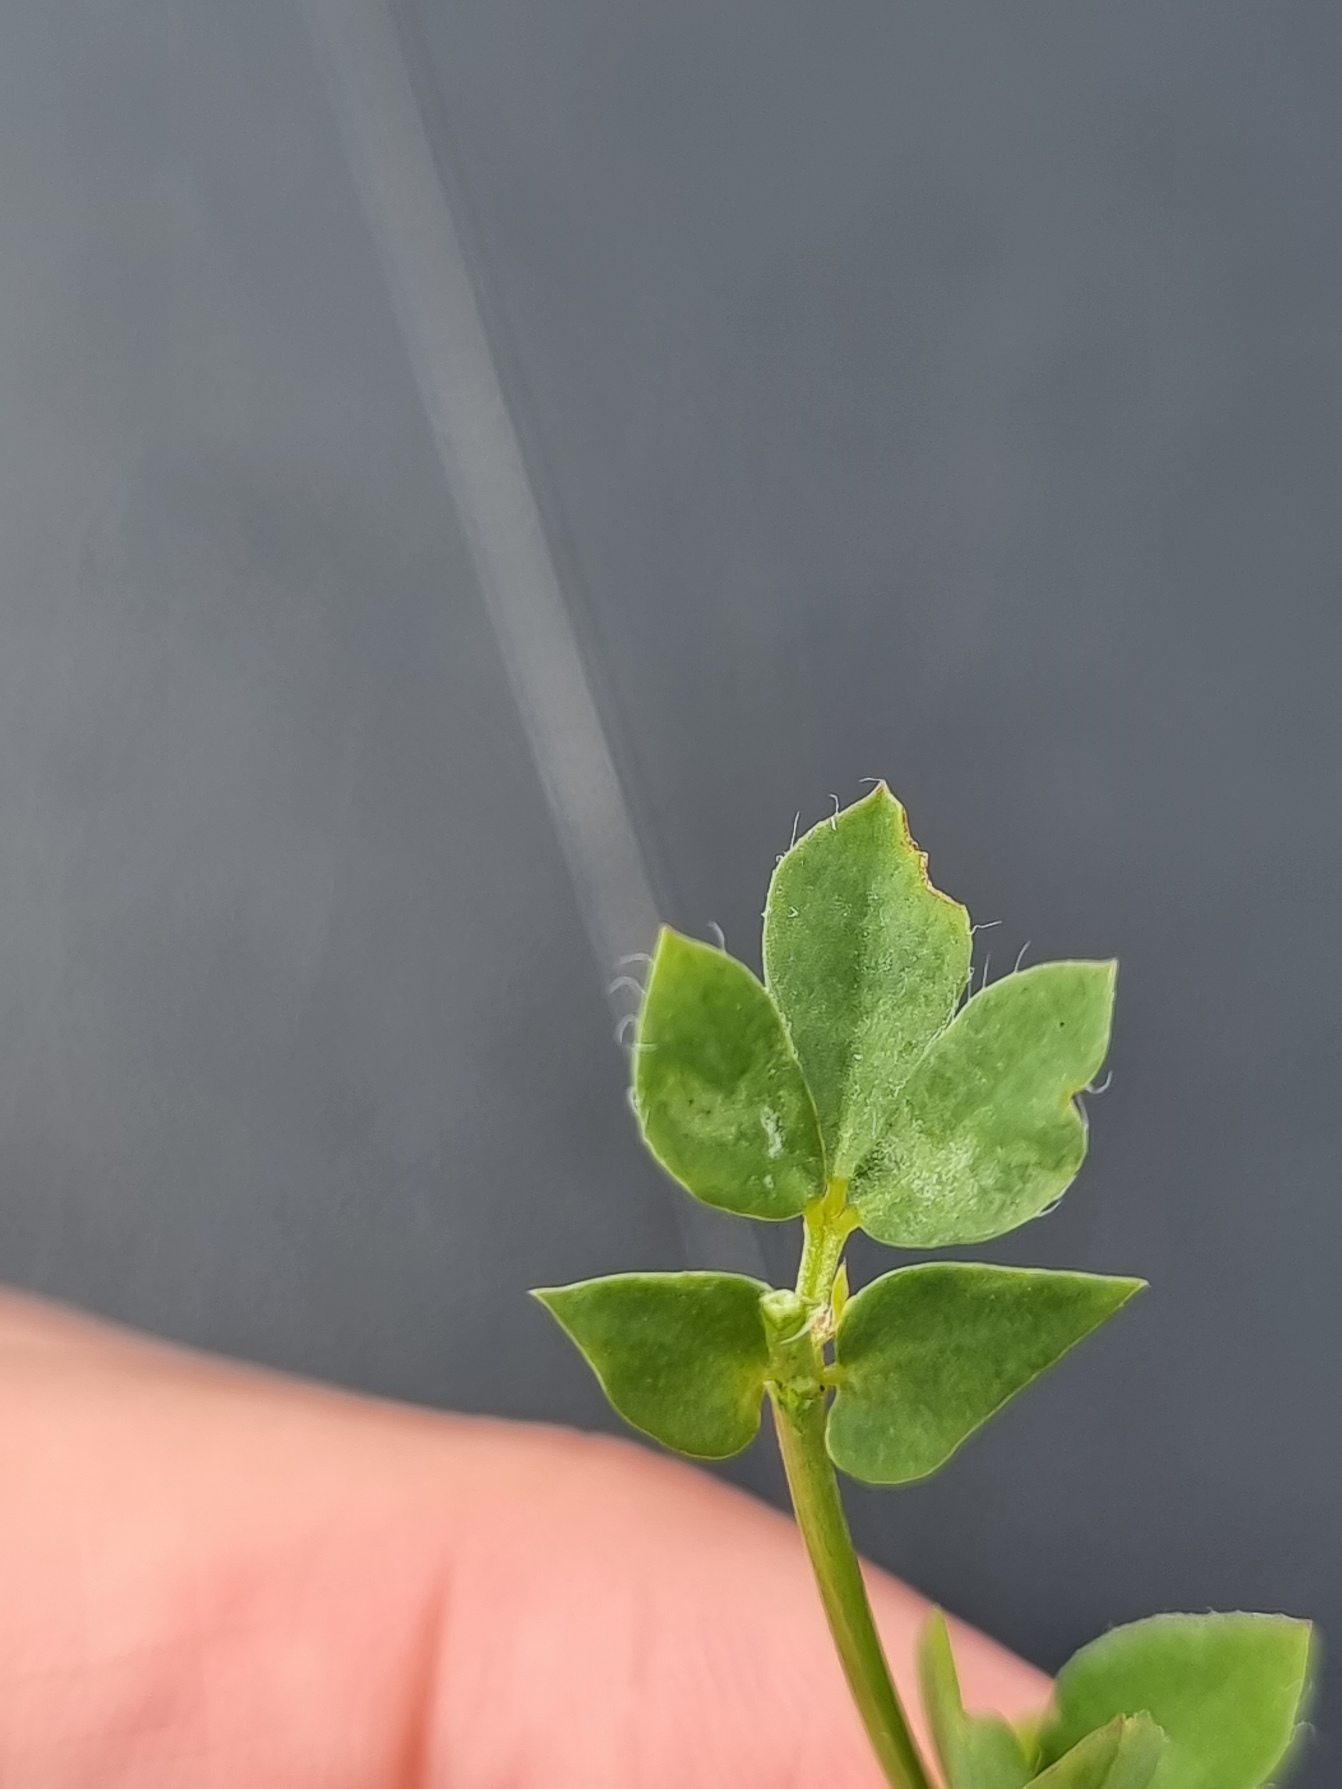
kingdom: Plantae
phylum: Tracheophyta
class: Magnoliopsida
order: Fabales
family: Fabaceae
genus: Lotus
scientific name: Lotus corniculatus
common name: Almindelig kællingetand
